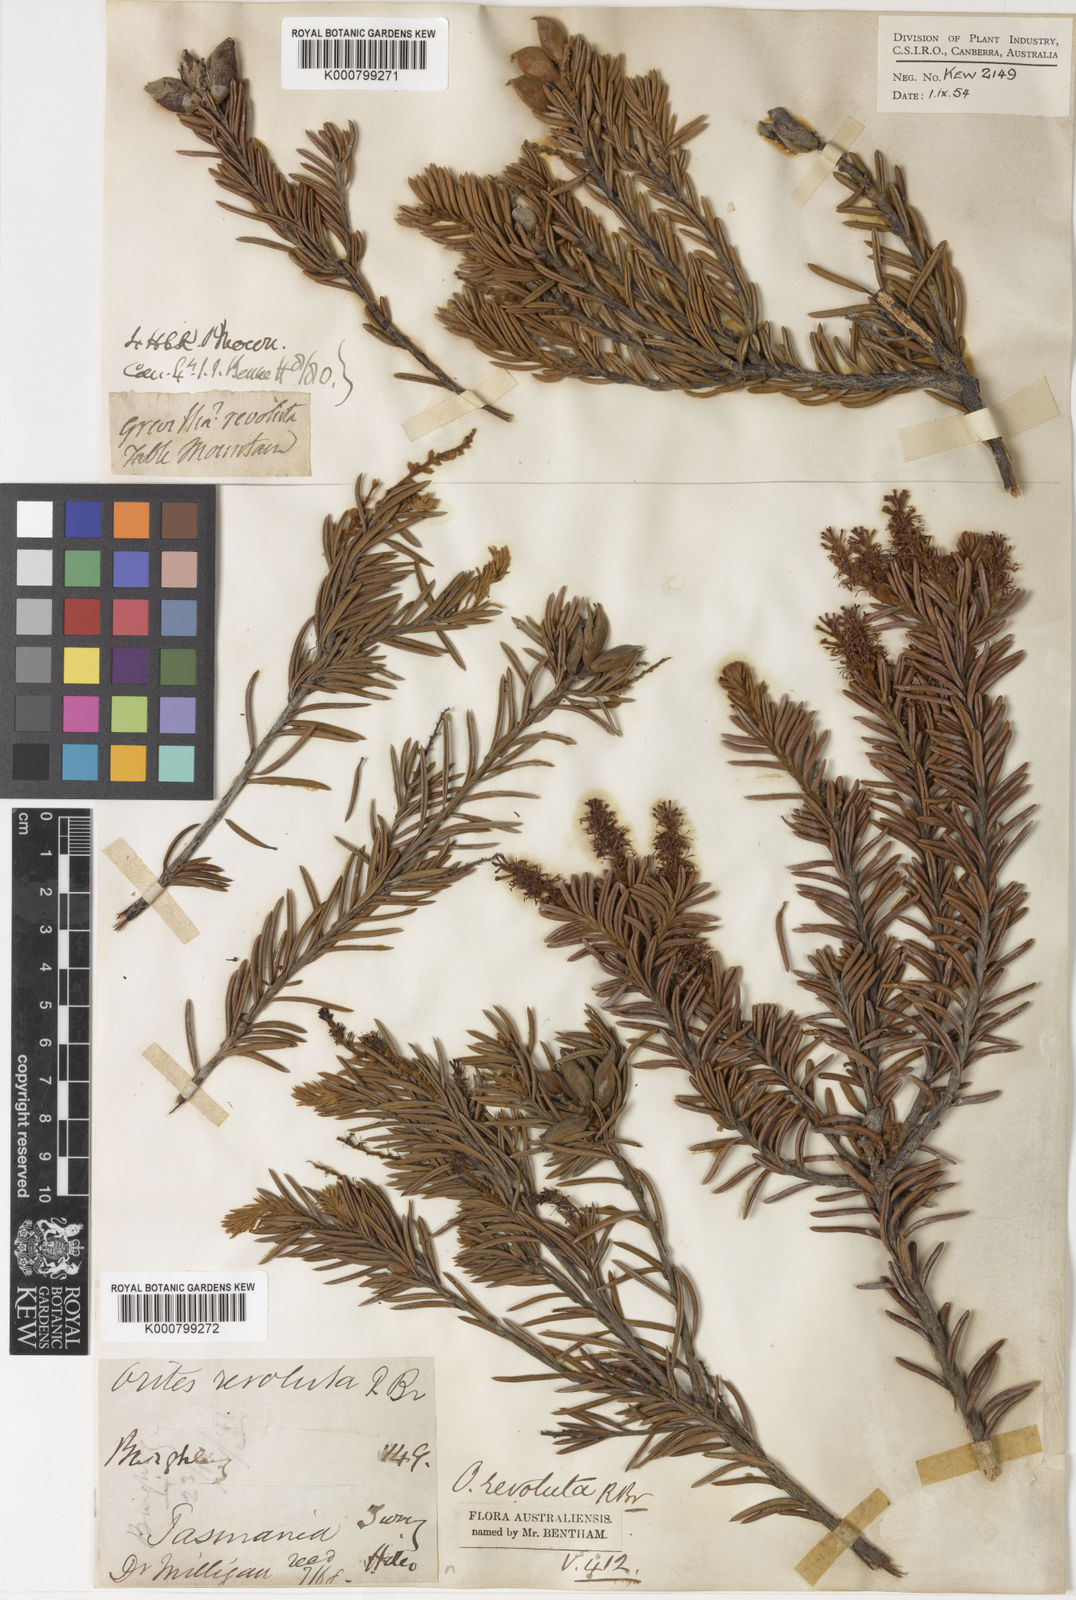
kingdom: Plantae
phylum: Tracheophyta
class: Magnoliopsida
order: Proteales
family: Proteaceae
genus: Orites
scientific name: Orites revolutus
